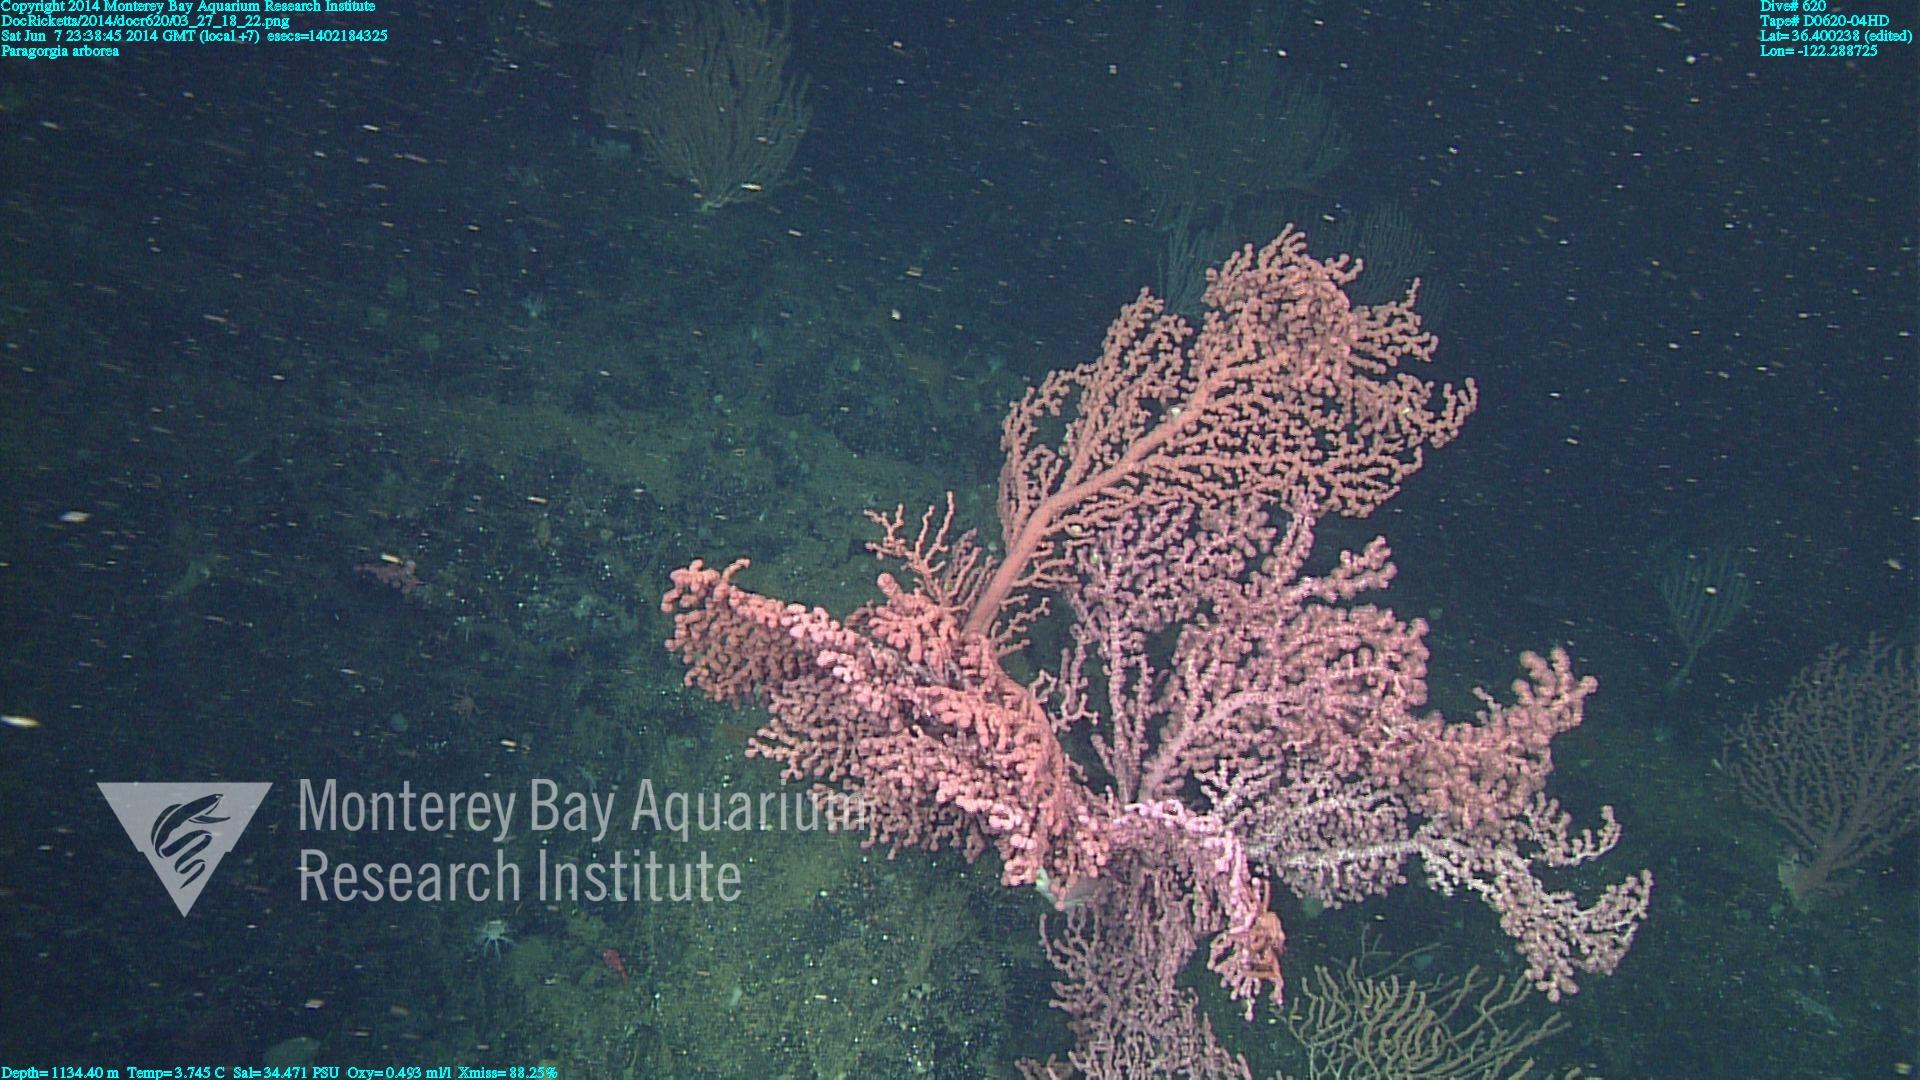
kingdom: Animalia
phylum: Cnidaria
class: Anthozoa
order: Scleralcyonacea
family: Coralliidae
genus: Paragorgia
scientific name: Paragorgia arborea
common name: Bubble gum coral
